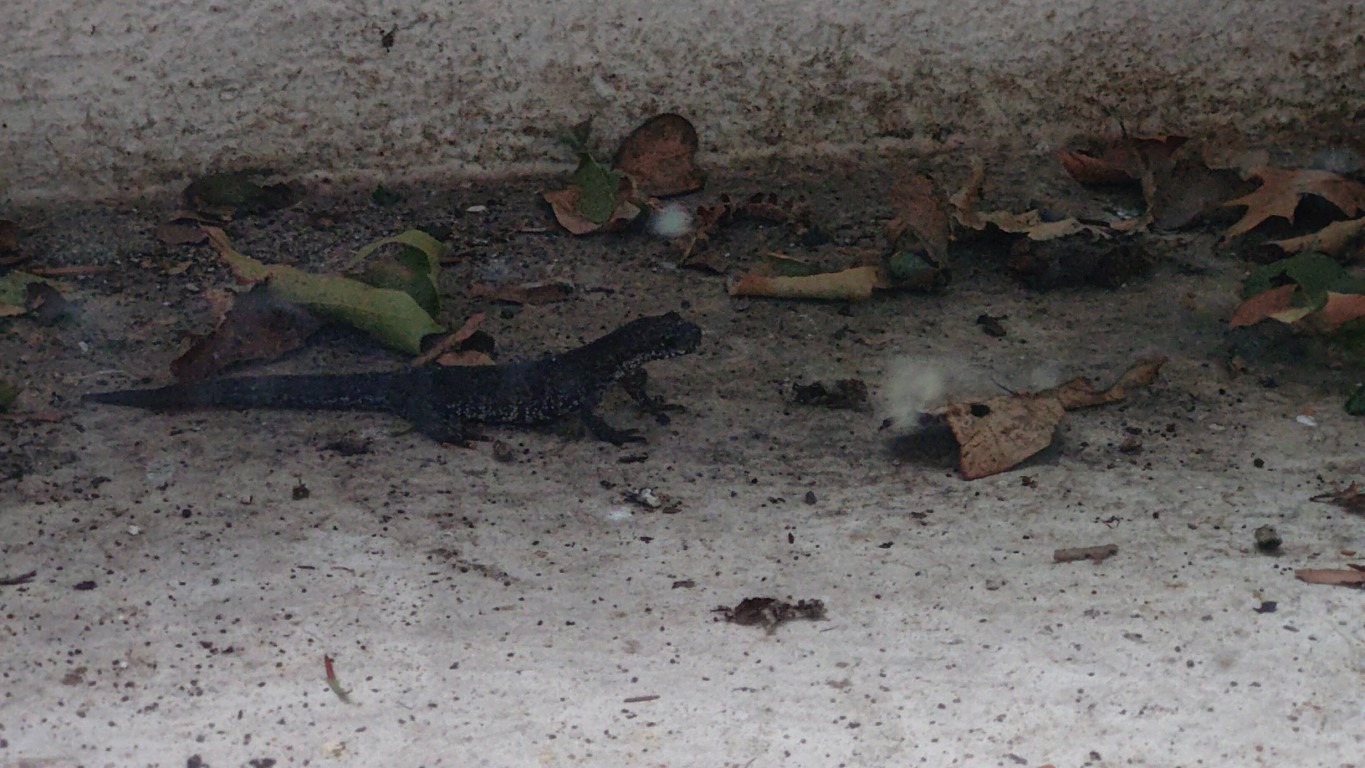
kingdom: Animalia
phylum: Chordata
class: Amphibia
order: Caudata
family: Salamandridae
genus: Triturus
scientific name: Triturus cristatus
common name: Stor vandsalamander
